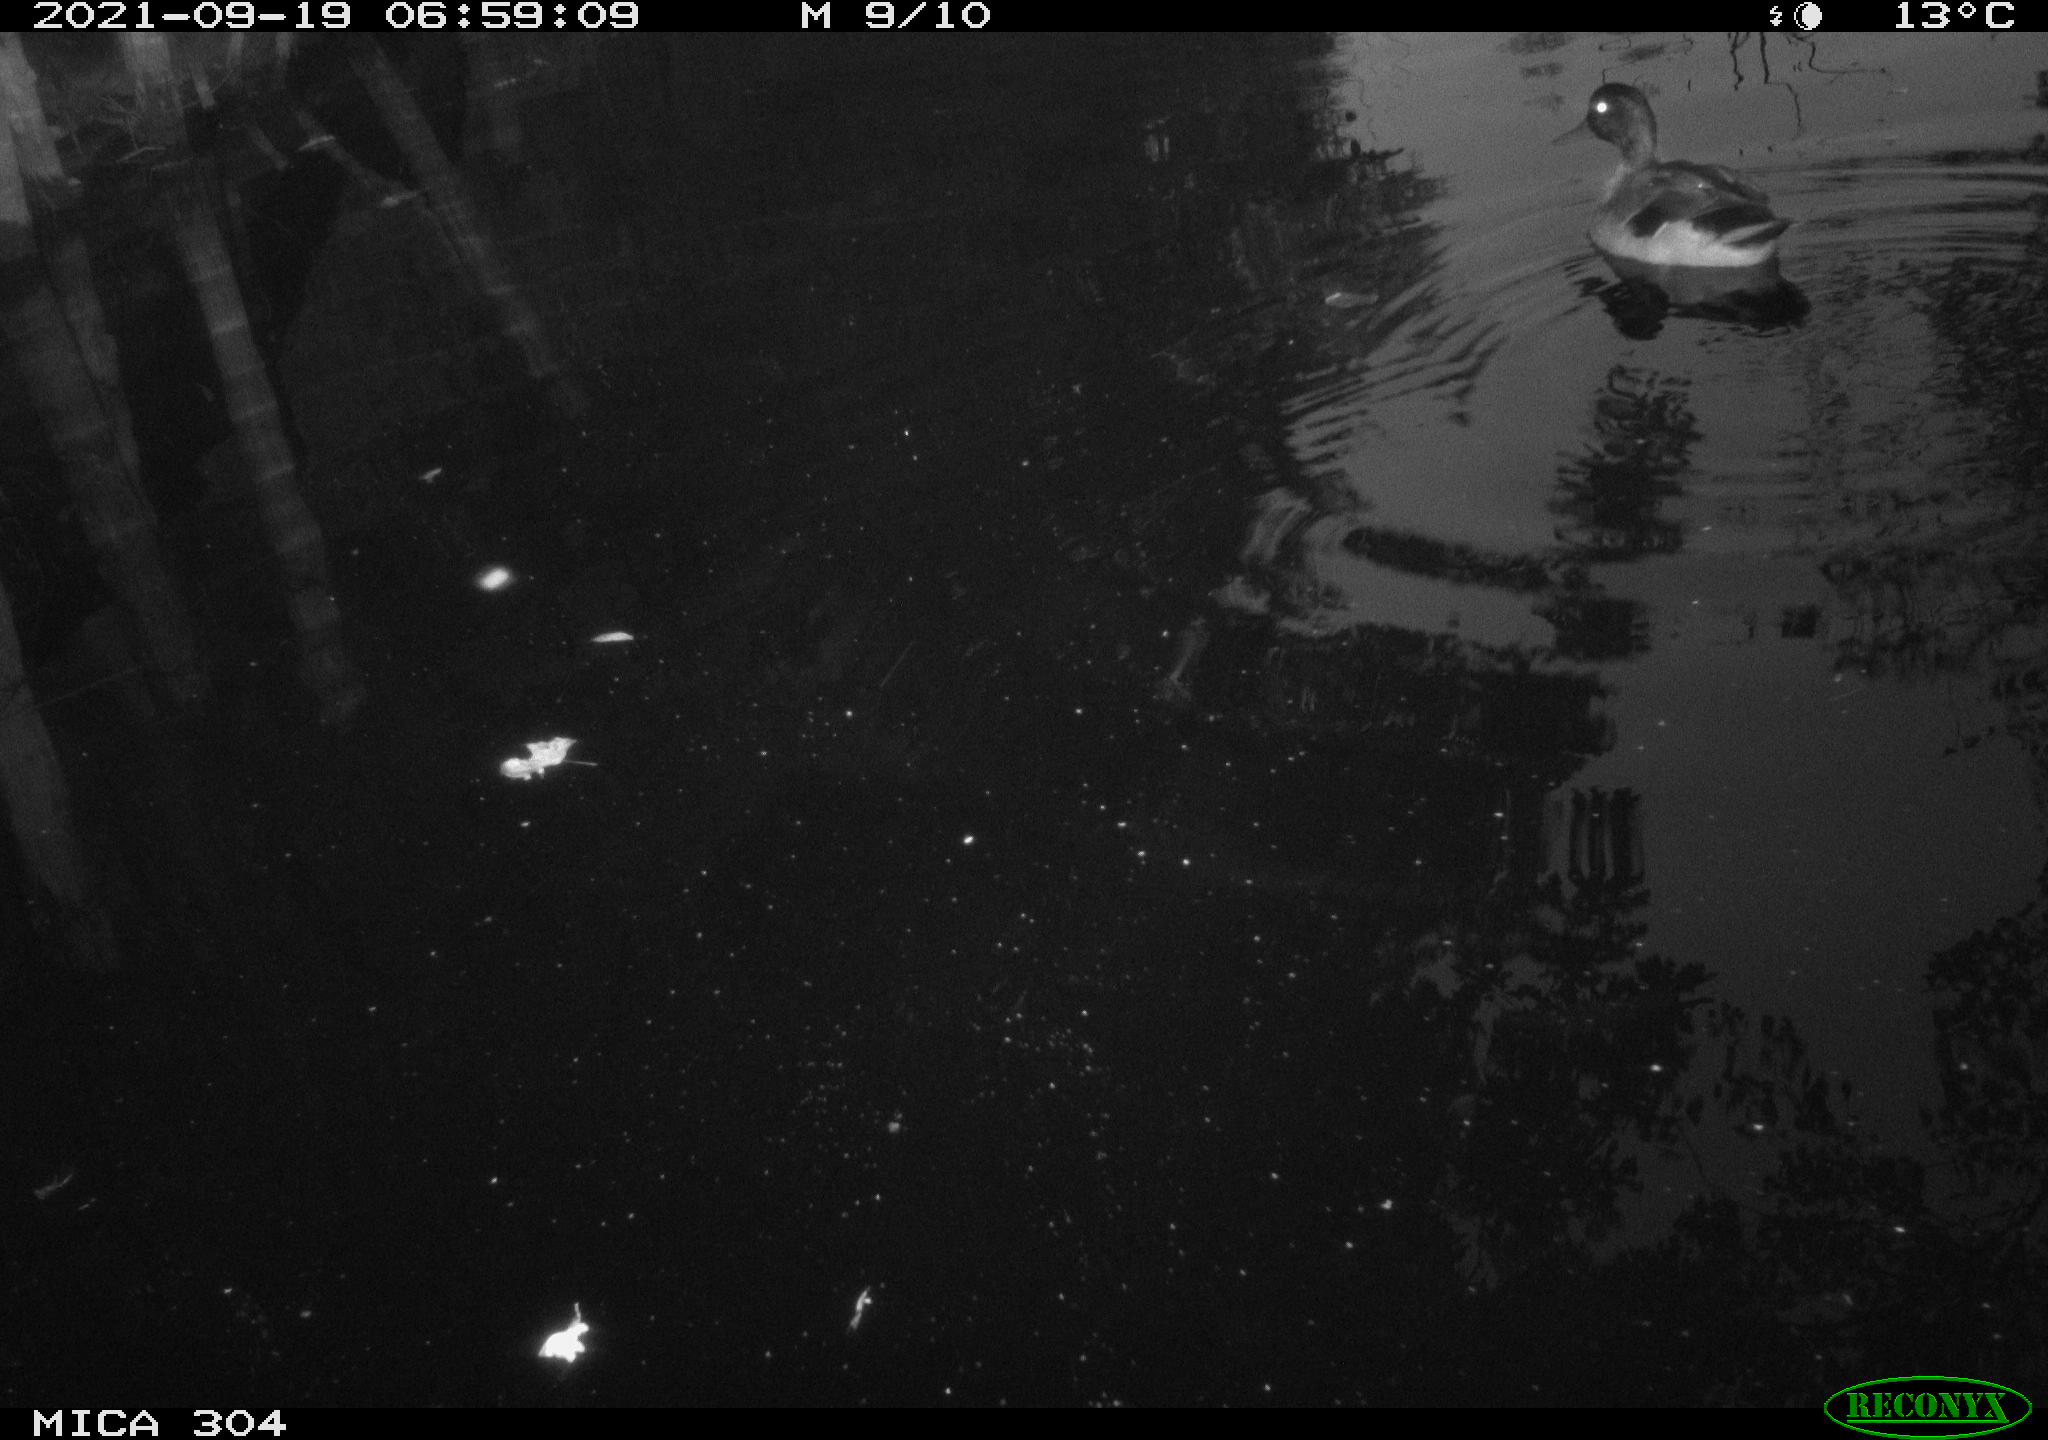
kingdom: Animalia
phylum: Chordata
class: Aves
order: Anseriformes
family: Anatidae
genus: Anas
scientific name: Anas platyrhynchos
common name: Mallard
